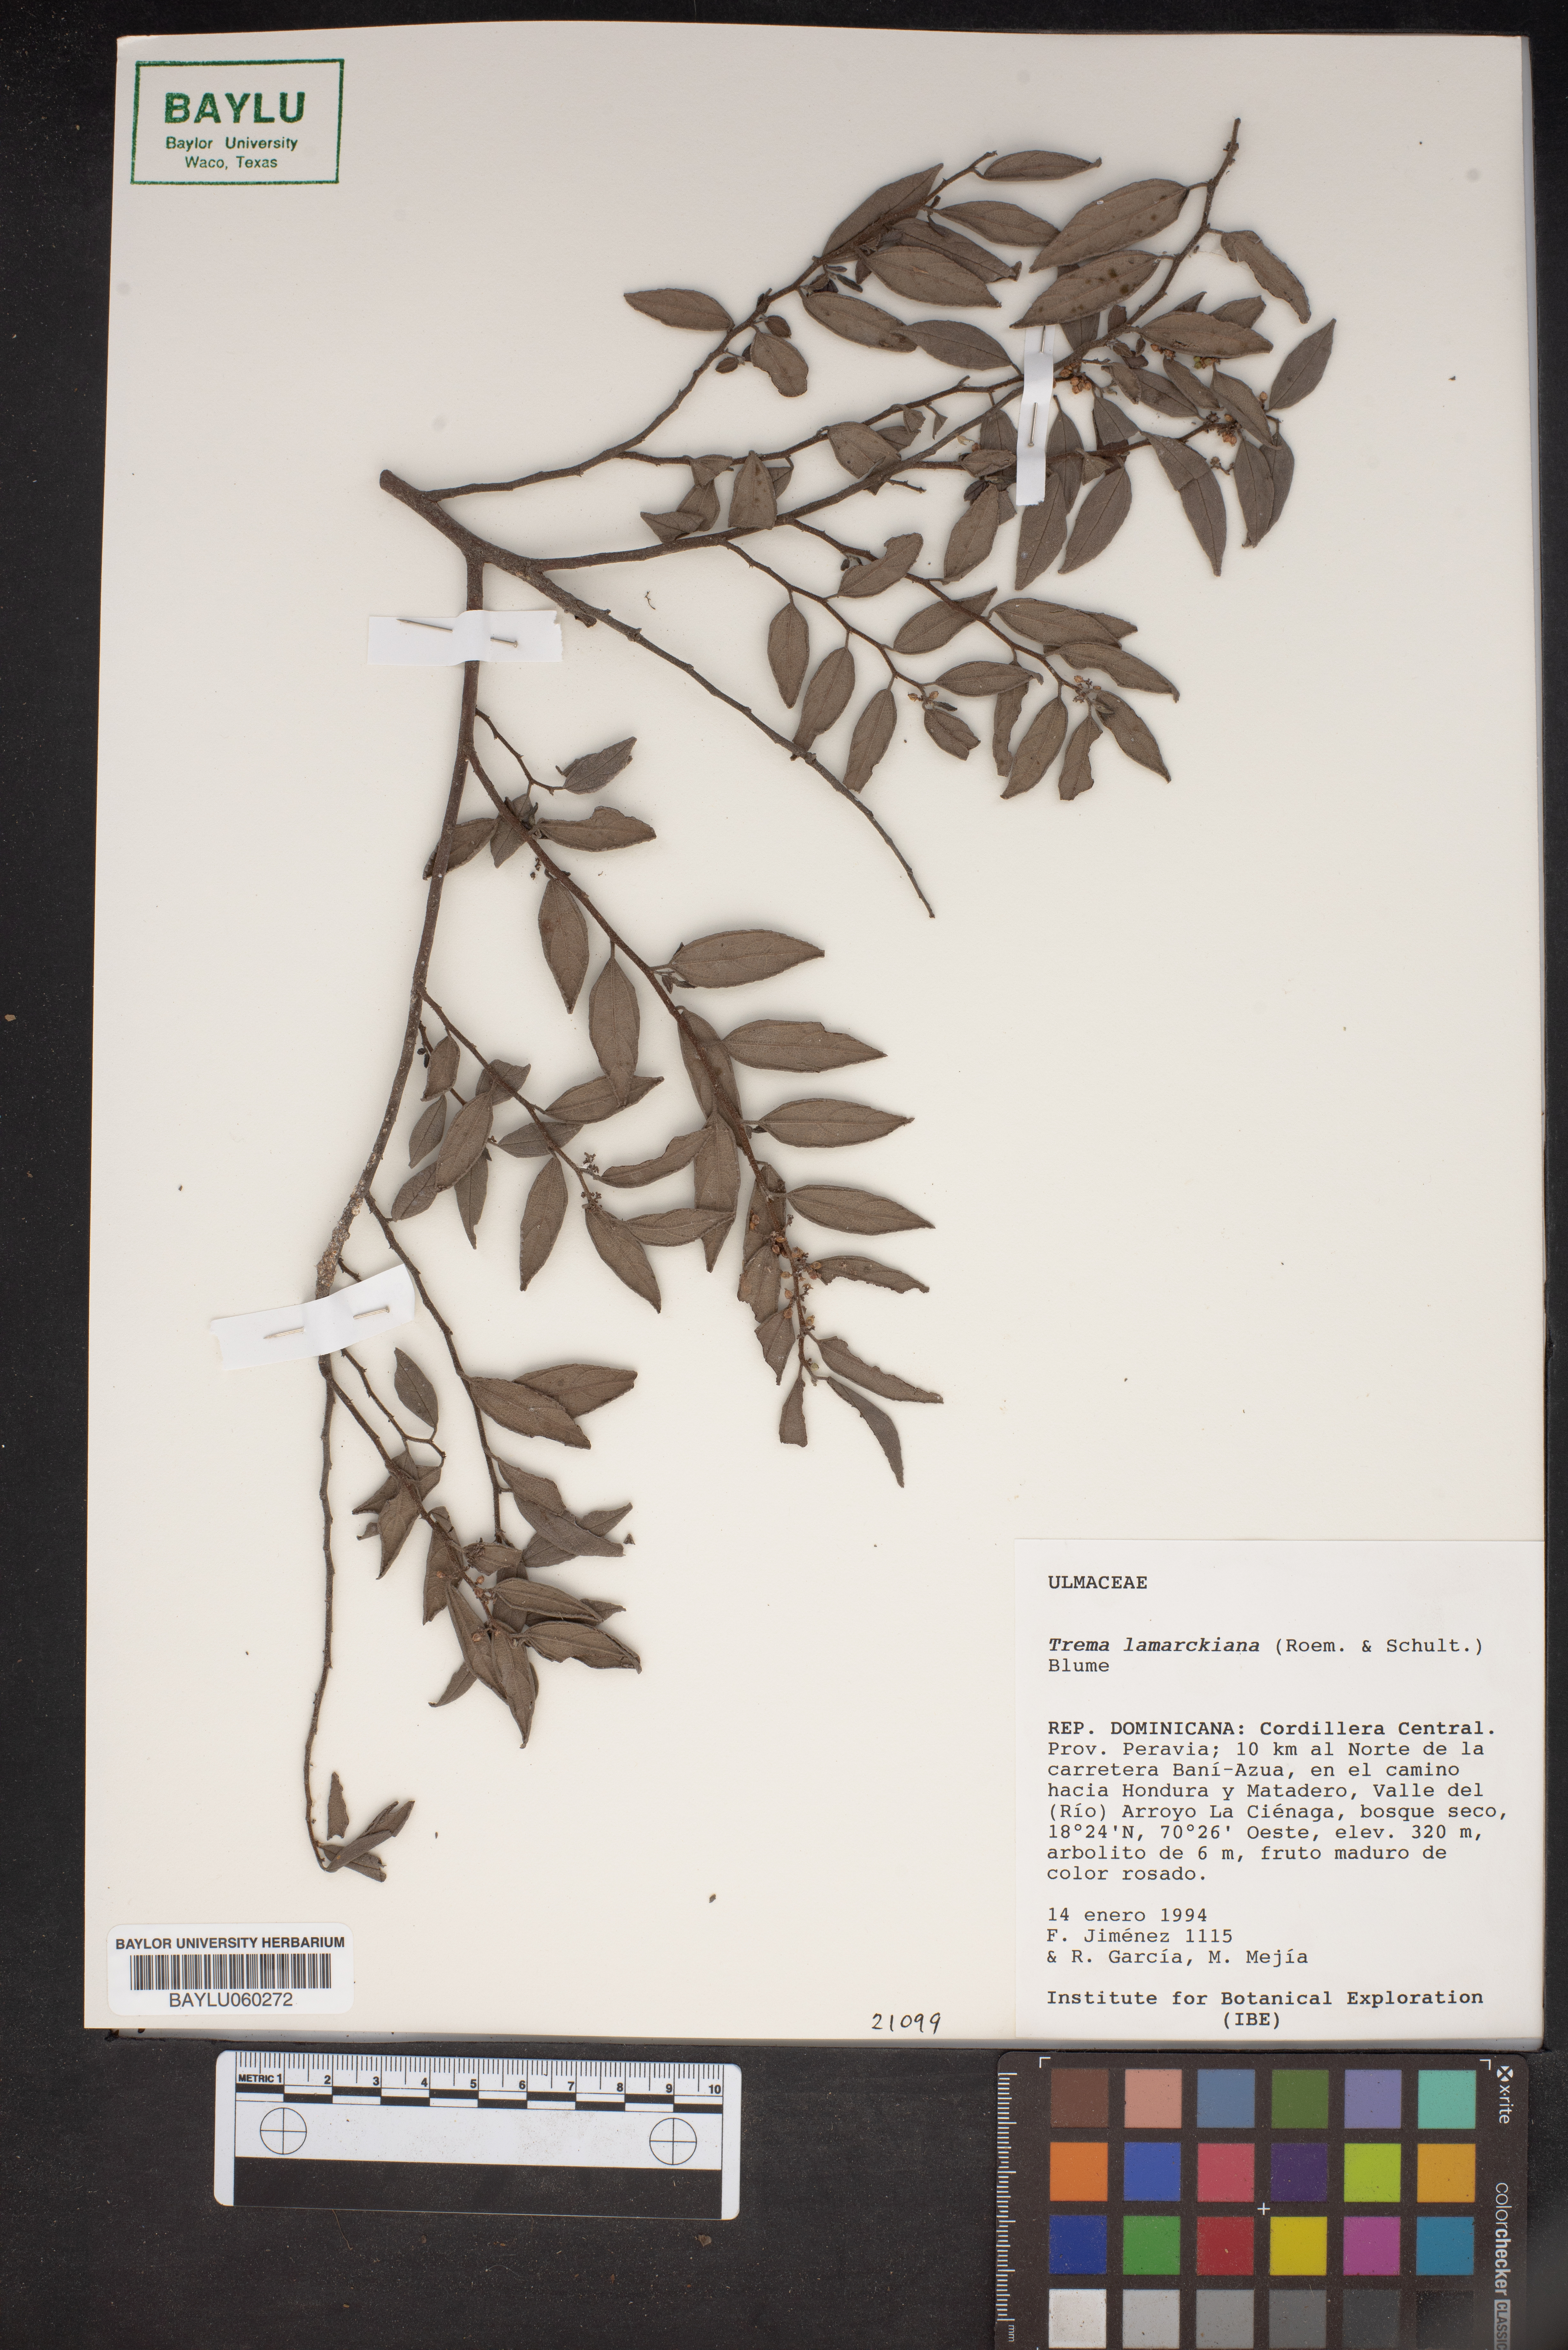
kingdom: Plantae
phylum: Tracheophyta
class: Magnoliopsida
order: Rosales
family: Cannabaceae
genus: Trema
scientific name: Trema lamarckianum
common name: Lamarck's trema
